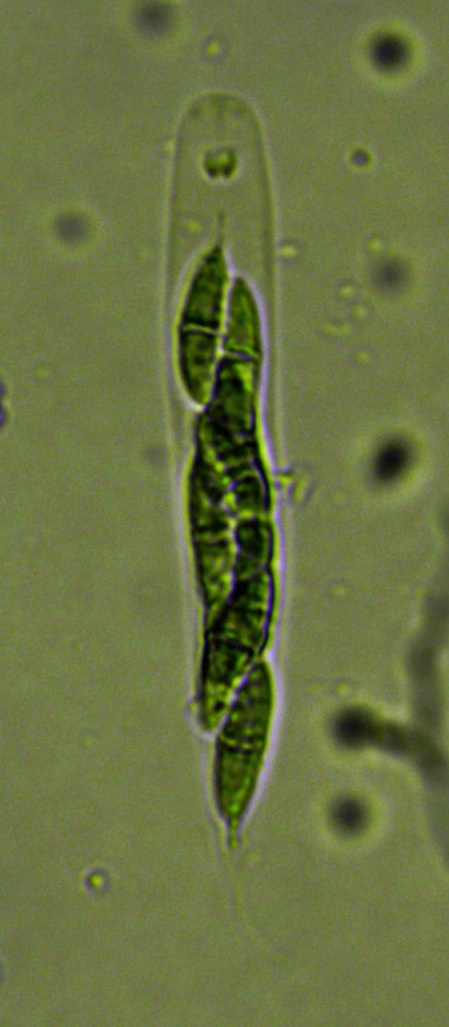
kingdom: Fungi
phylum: Ascomycota
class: Sordariomycetes
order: Diaporthales
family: Gnomoniaceae
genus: Plagiostoma
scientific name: Plagiostoma convexum
